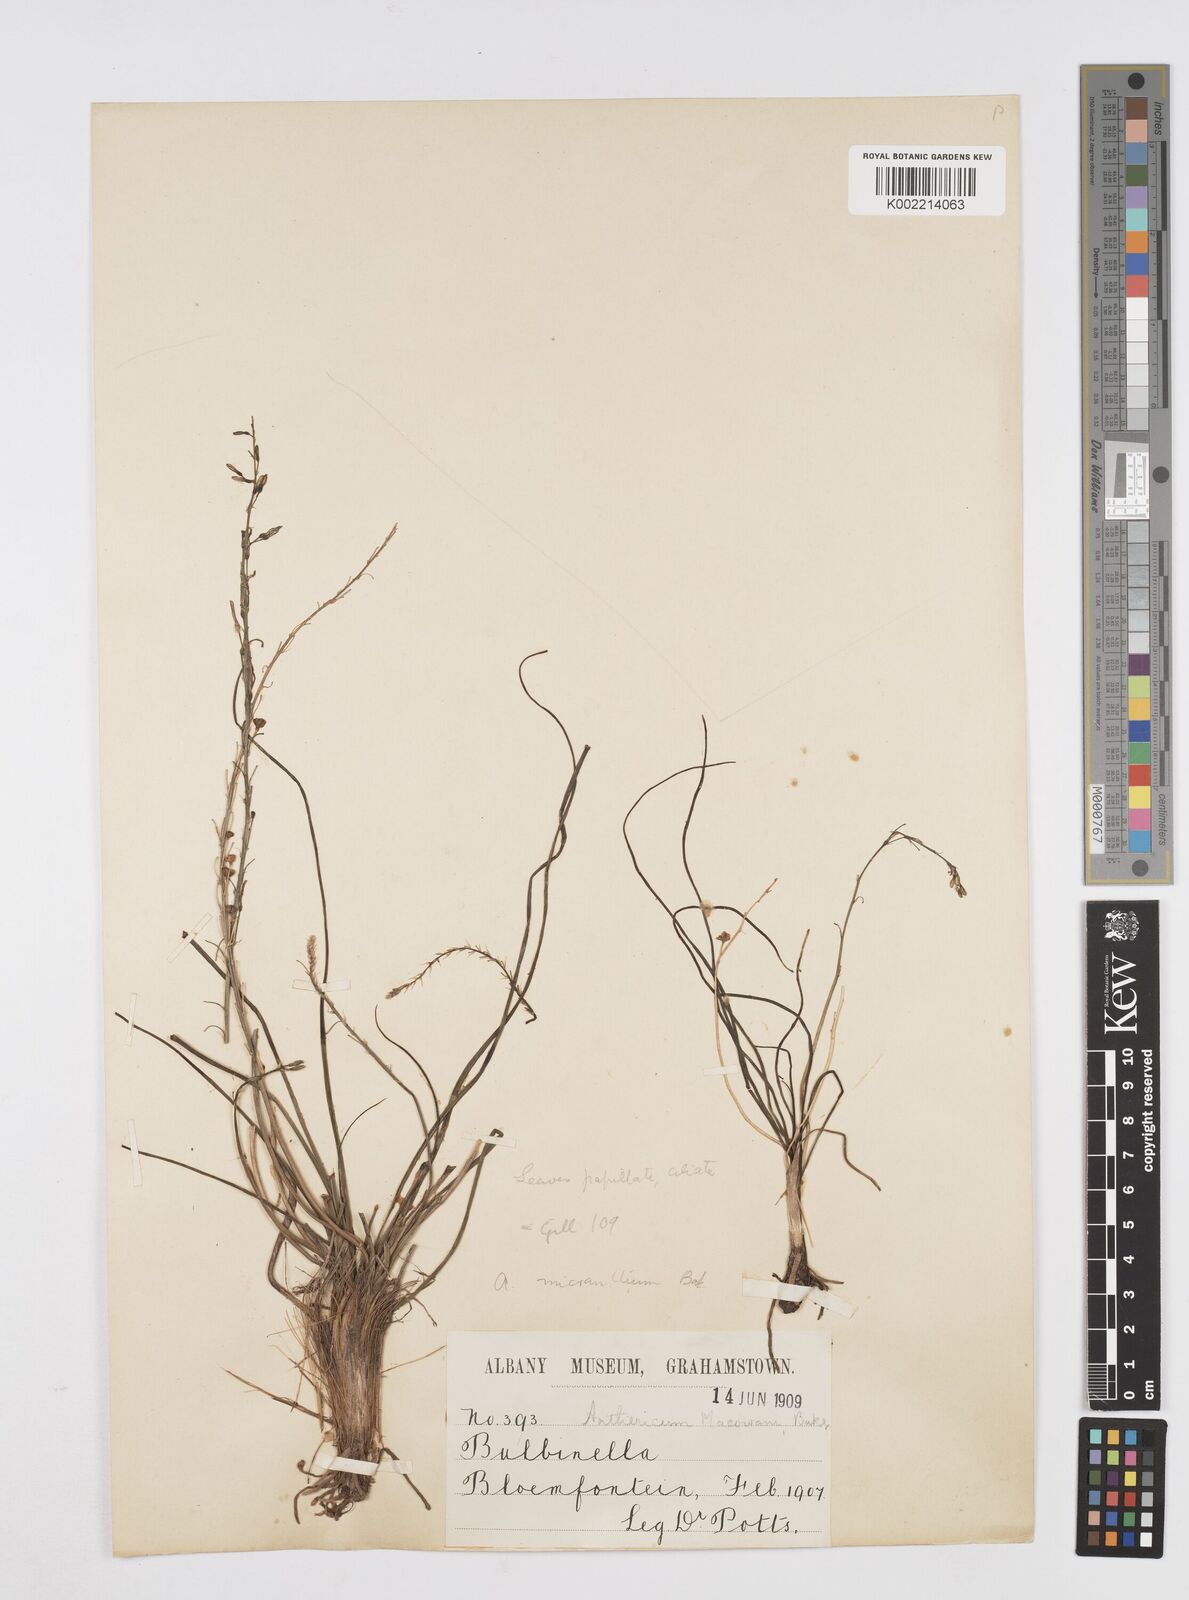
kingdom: Plantae
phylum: Tracheophyta
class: Liliopsida
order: Asparagales
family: Asphodelaceae
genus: Trachyandra
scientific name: Trachyandra
